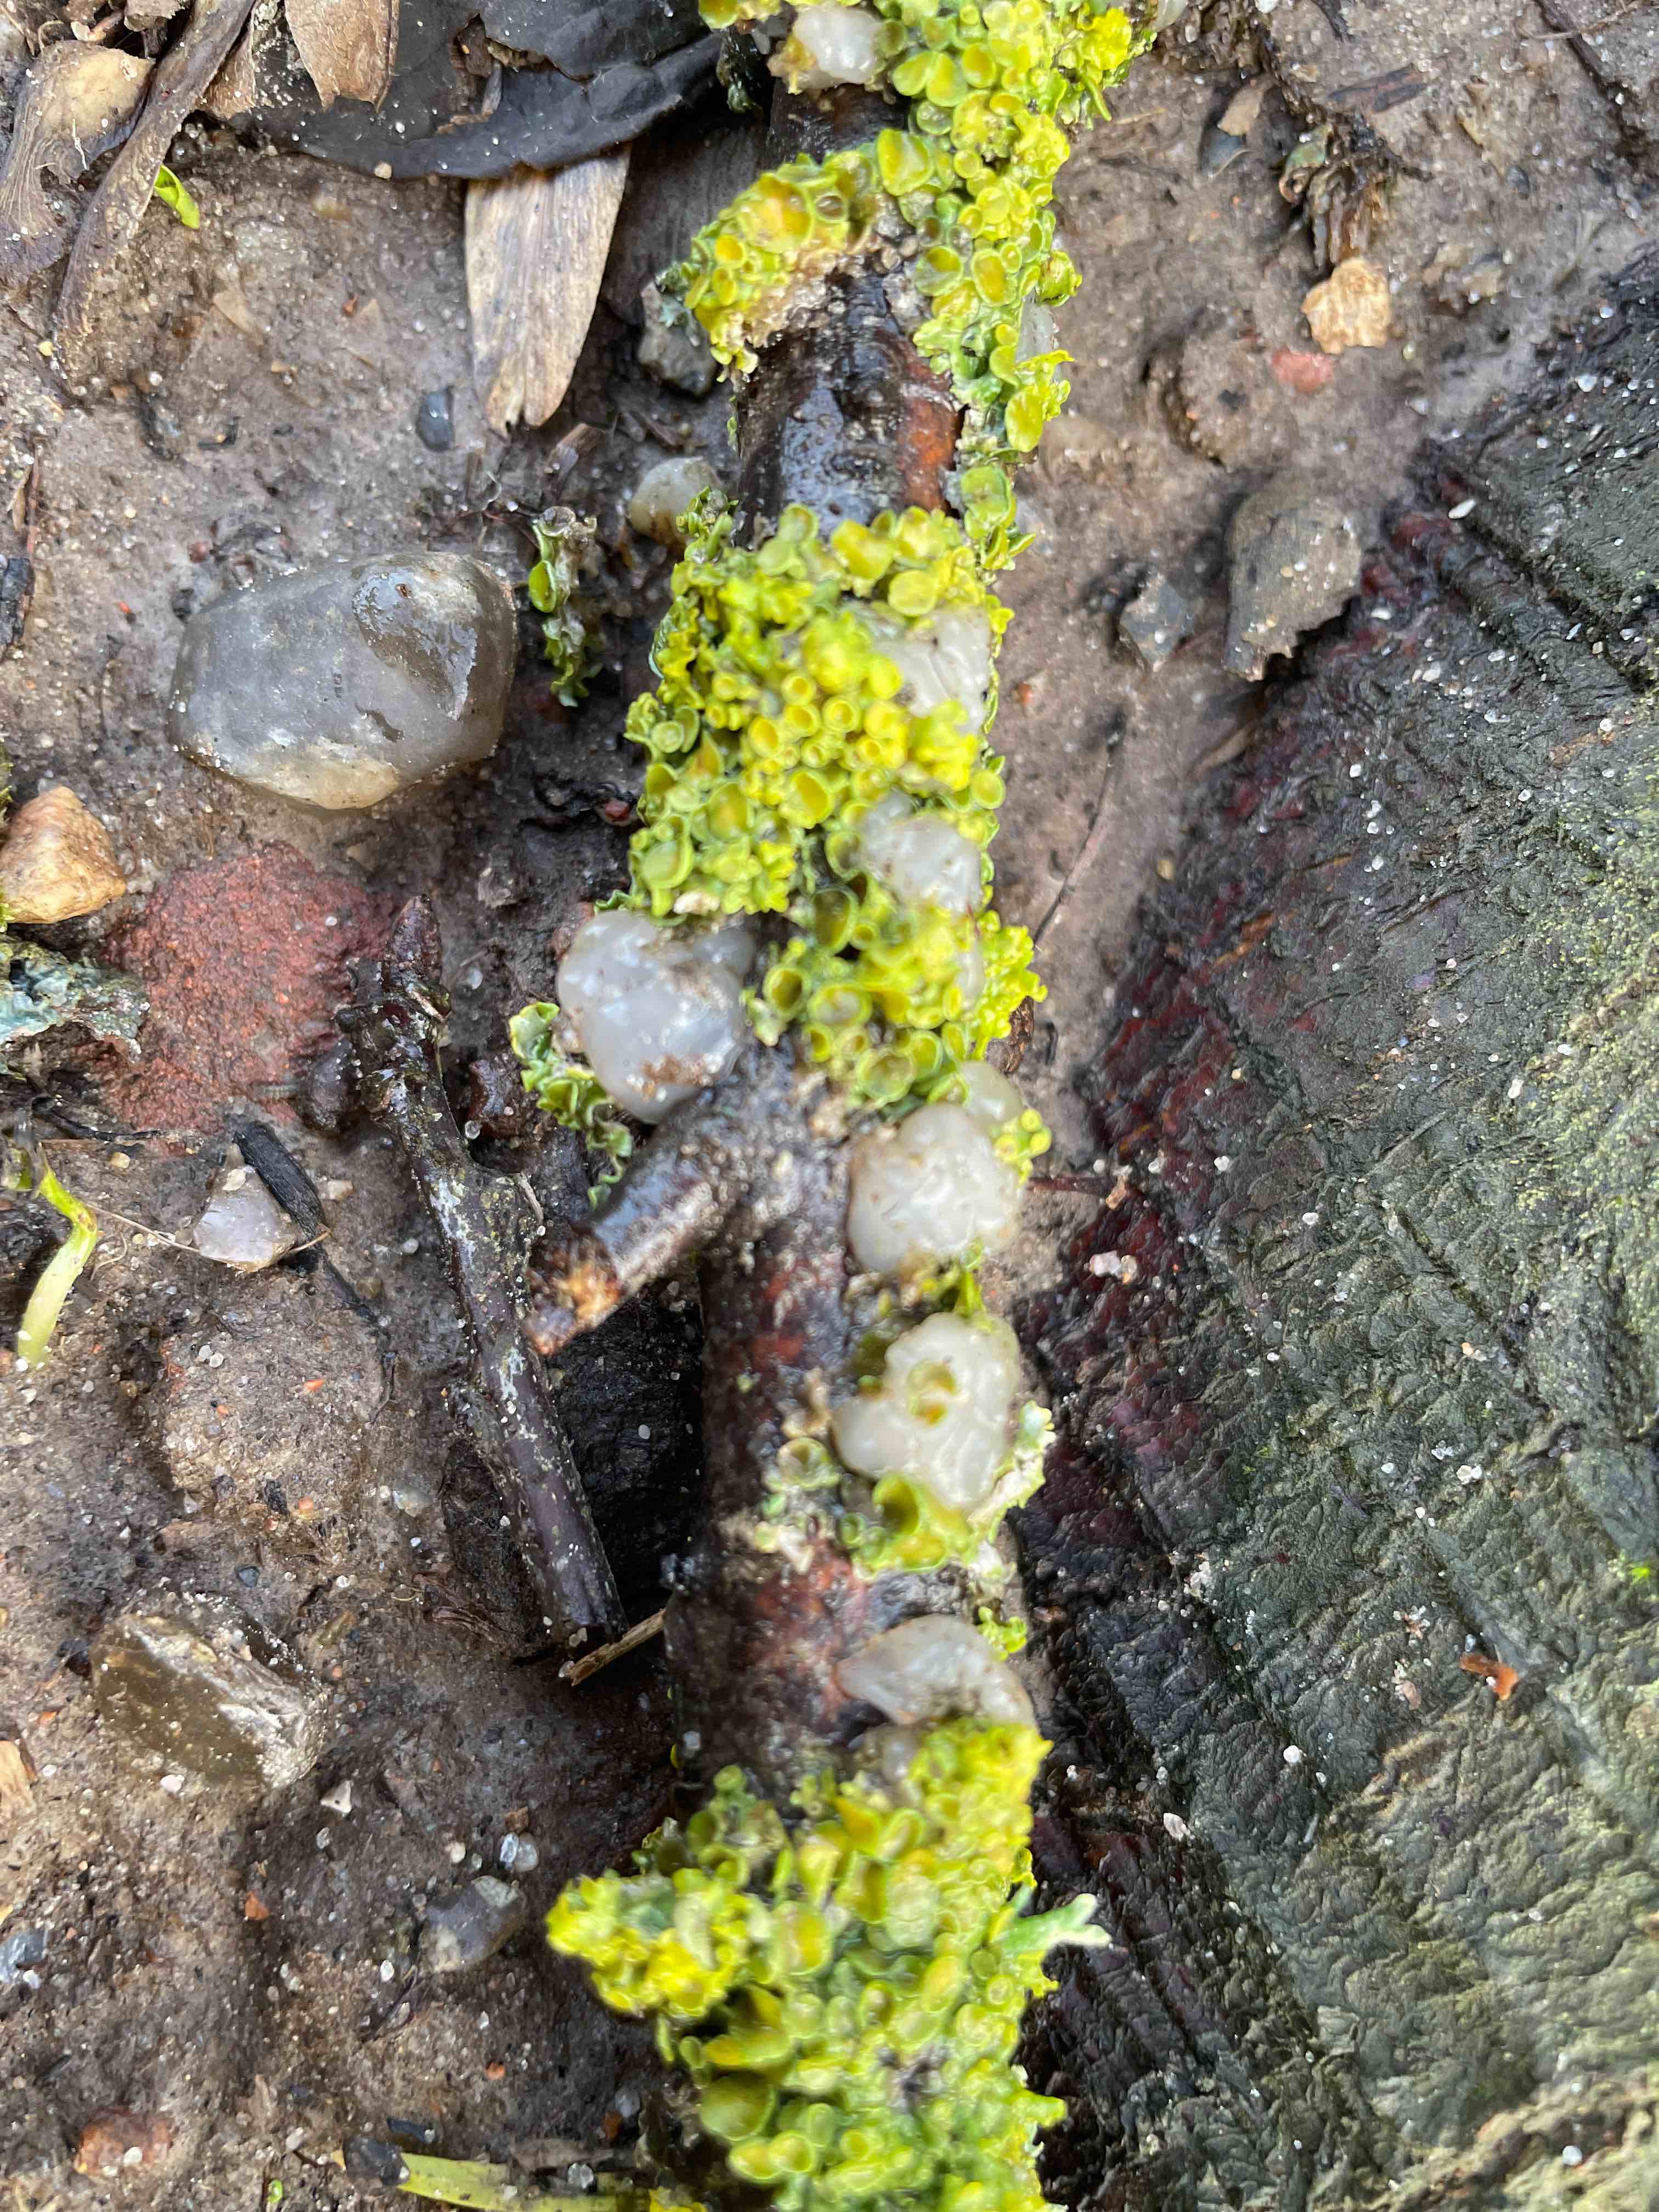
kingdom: Fungi
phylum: Basidiomycota
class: Agaricomycetes
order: Auriculariales
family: Hyaloriaceae
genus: Myxarium
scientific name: Myxarium nucleatum
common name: klar bævretop
